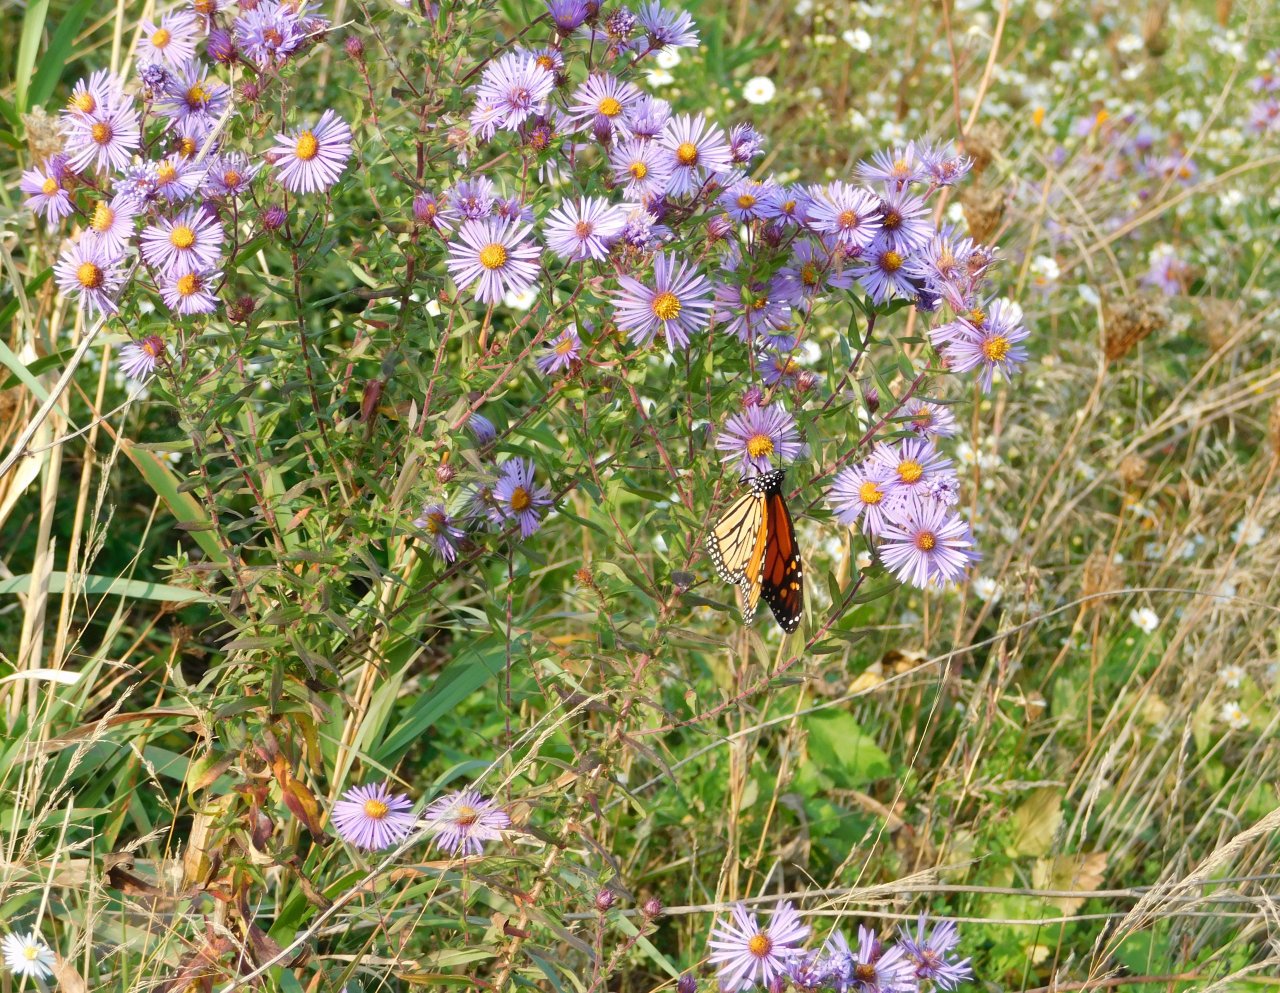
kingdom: Animalia
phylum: Arthropoda
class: Insecta
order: Lepidoptera
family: Nymphalidae
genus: Danaus
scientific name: Danaus plexippus
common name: Monarch
